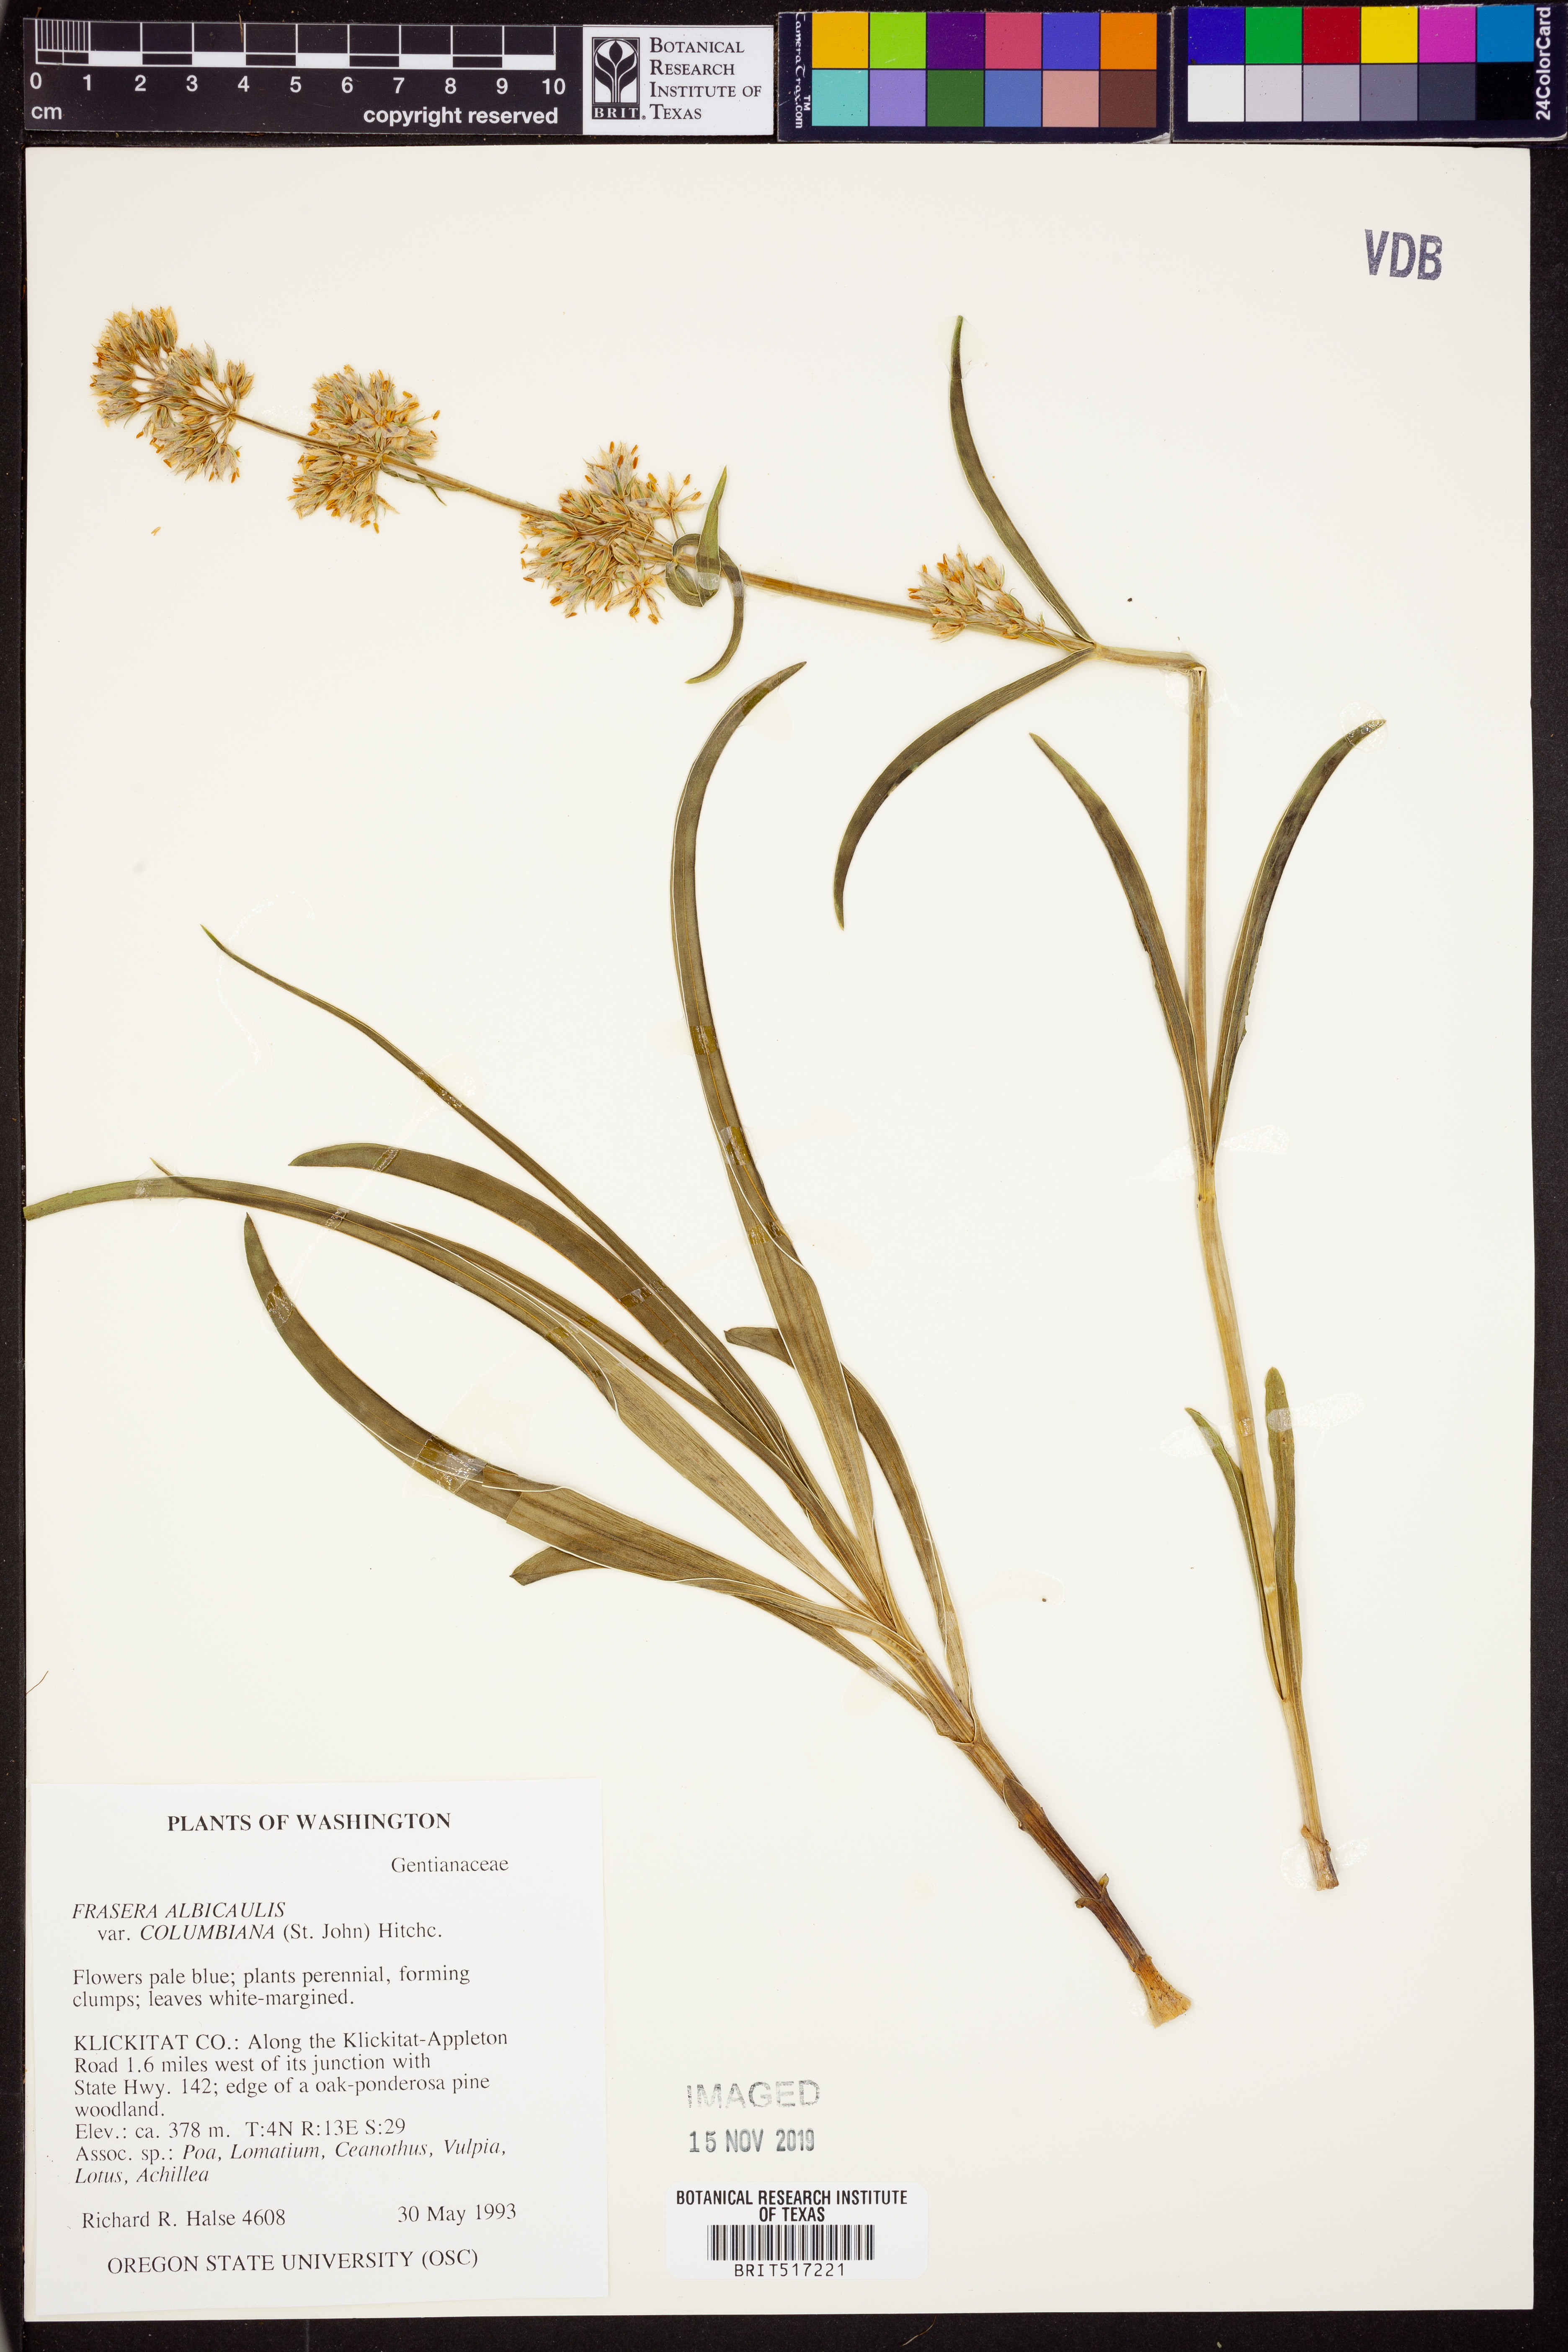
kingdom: Plantae
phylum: Tracheophyta
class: Magnoliopsida
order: Gentianales
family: Gentianaceae
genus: Frasera
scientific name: Frasera albicaulis
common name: Cusick's frasera
